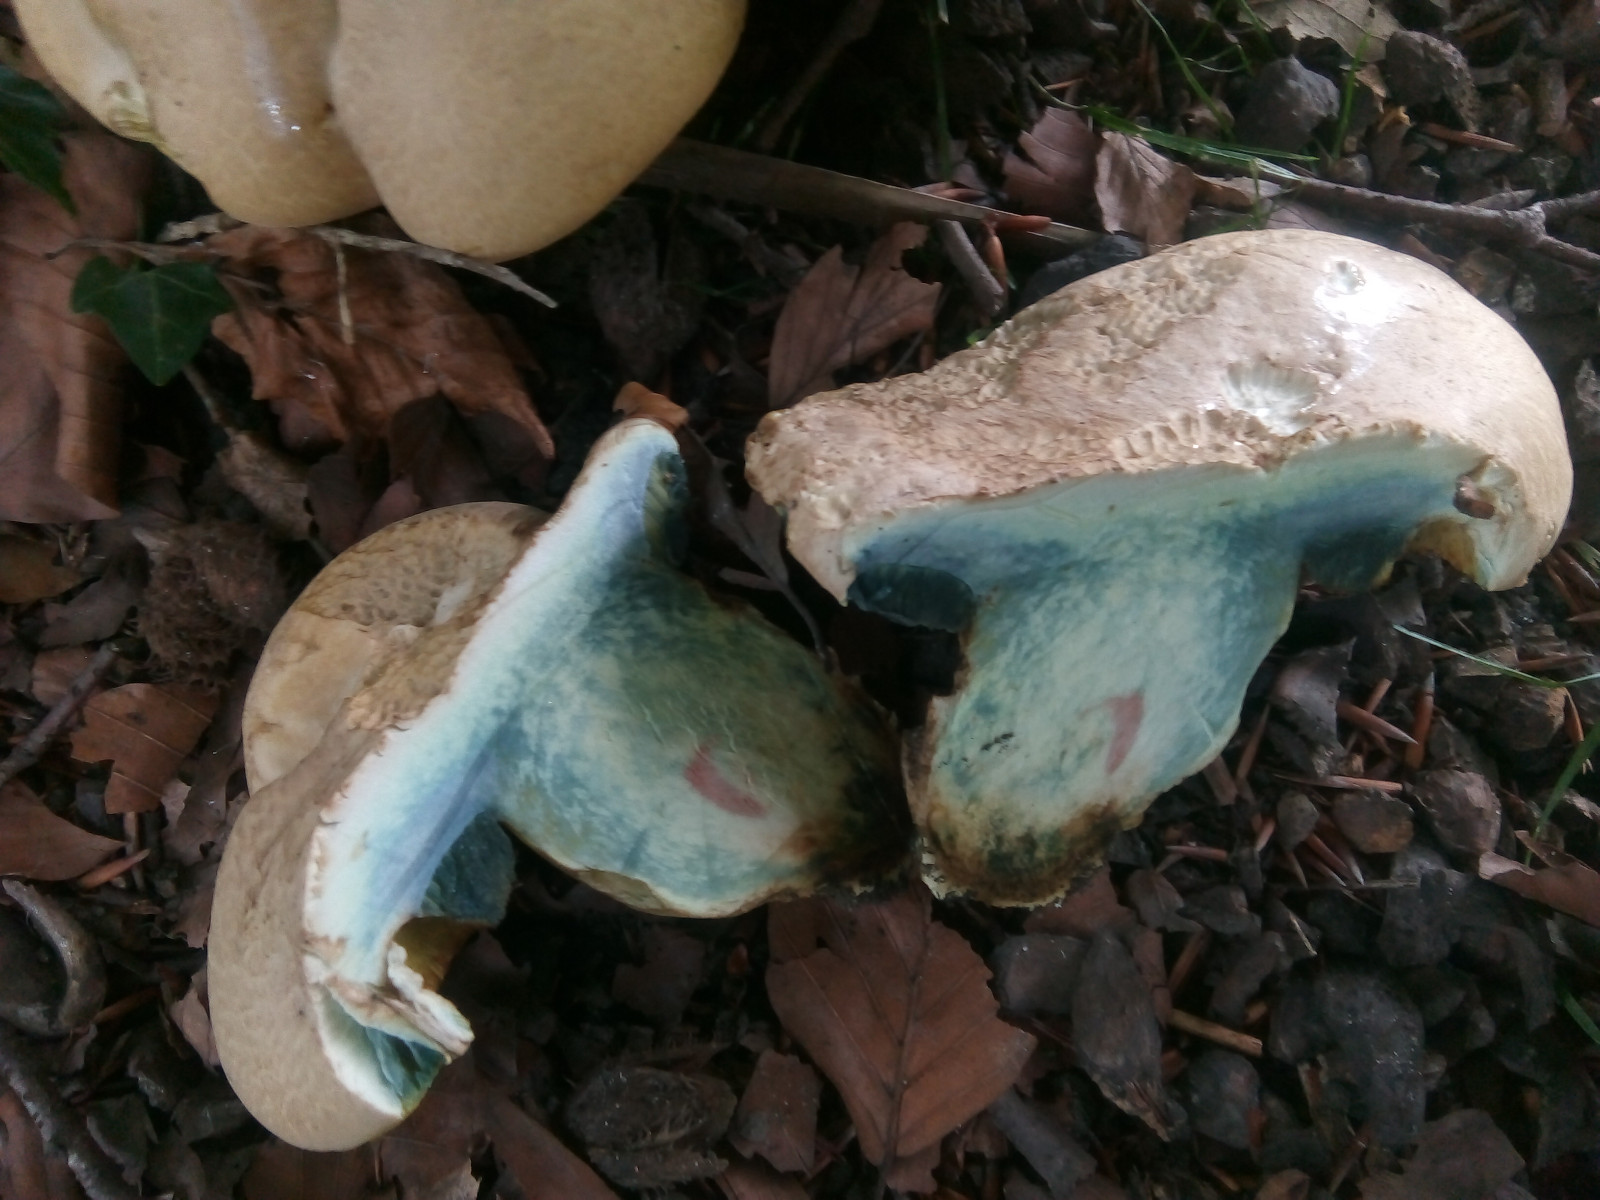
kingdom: Fungi
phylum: Basidiomycota
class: Agaricomycetes
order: Boletales
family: Boletaceae
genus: Caloboletus
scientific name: Caloboletus radicans
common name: rod-rørhat
